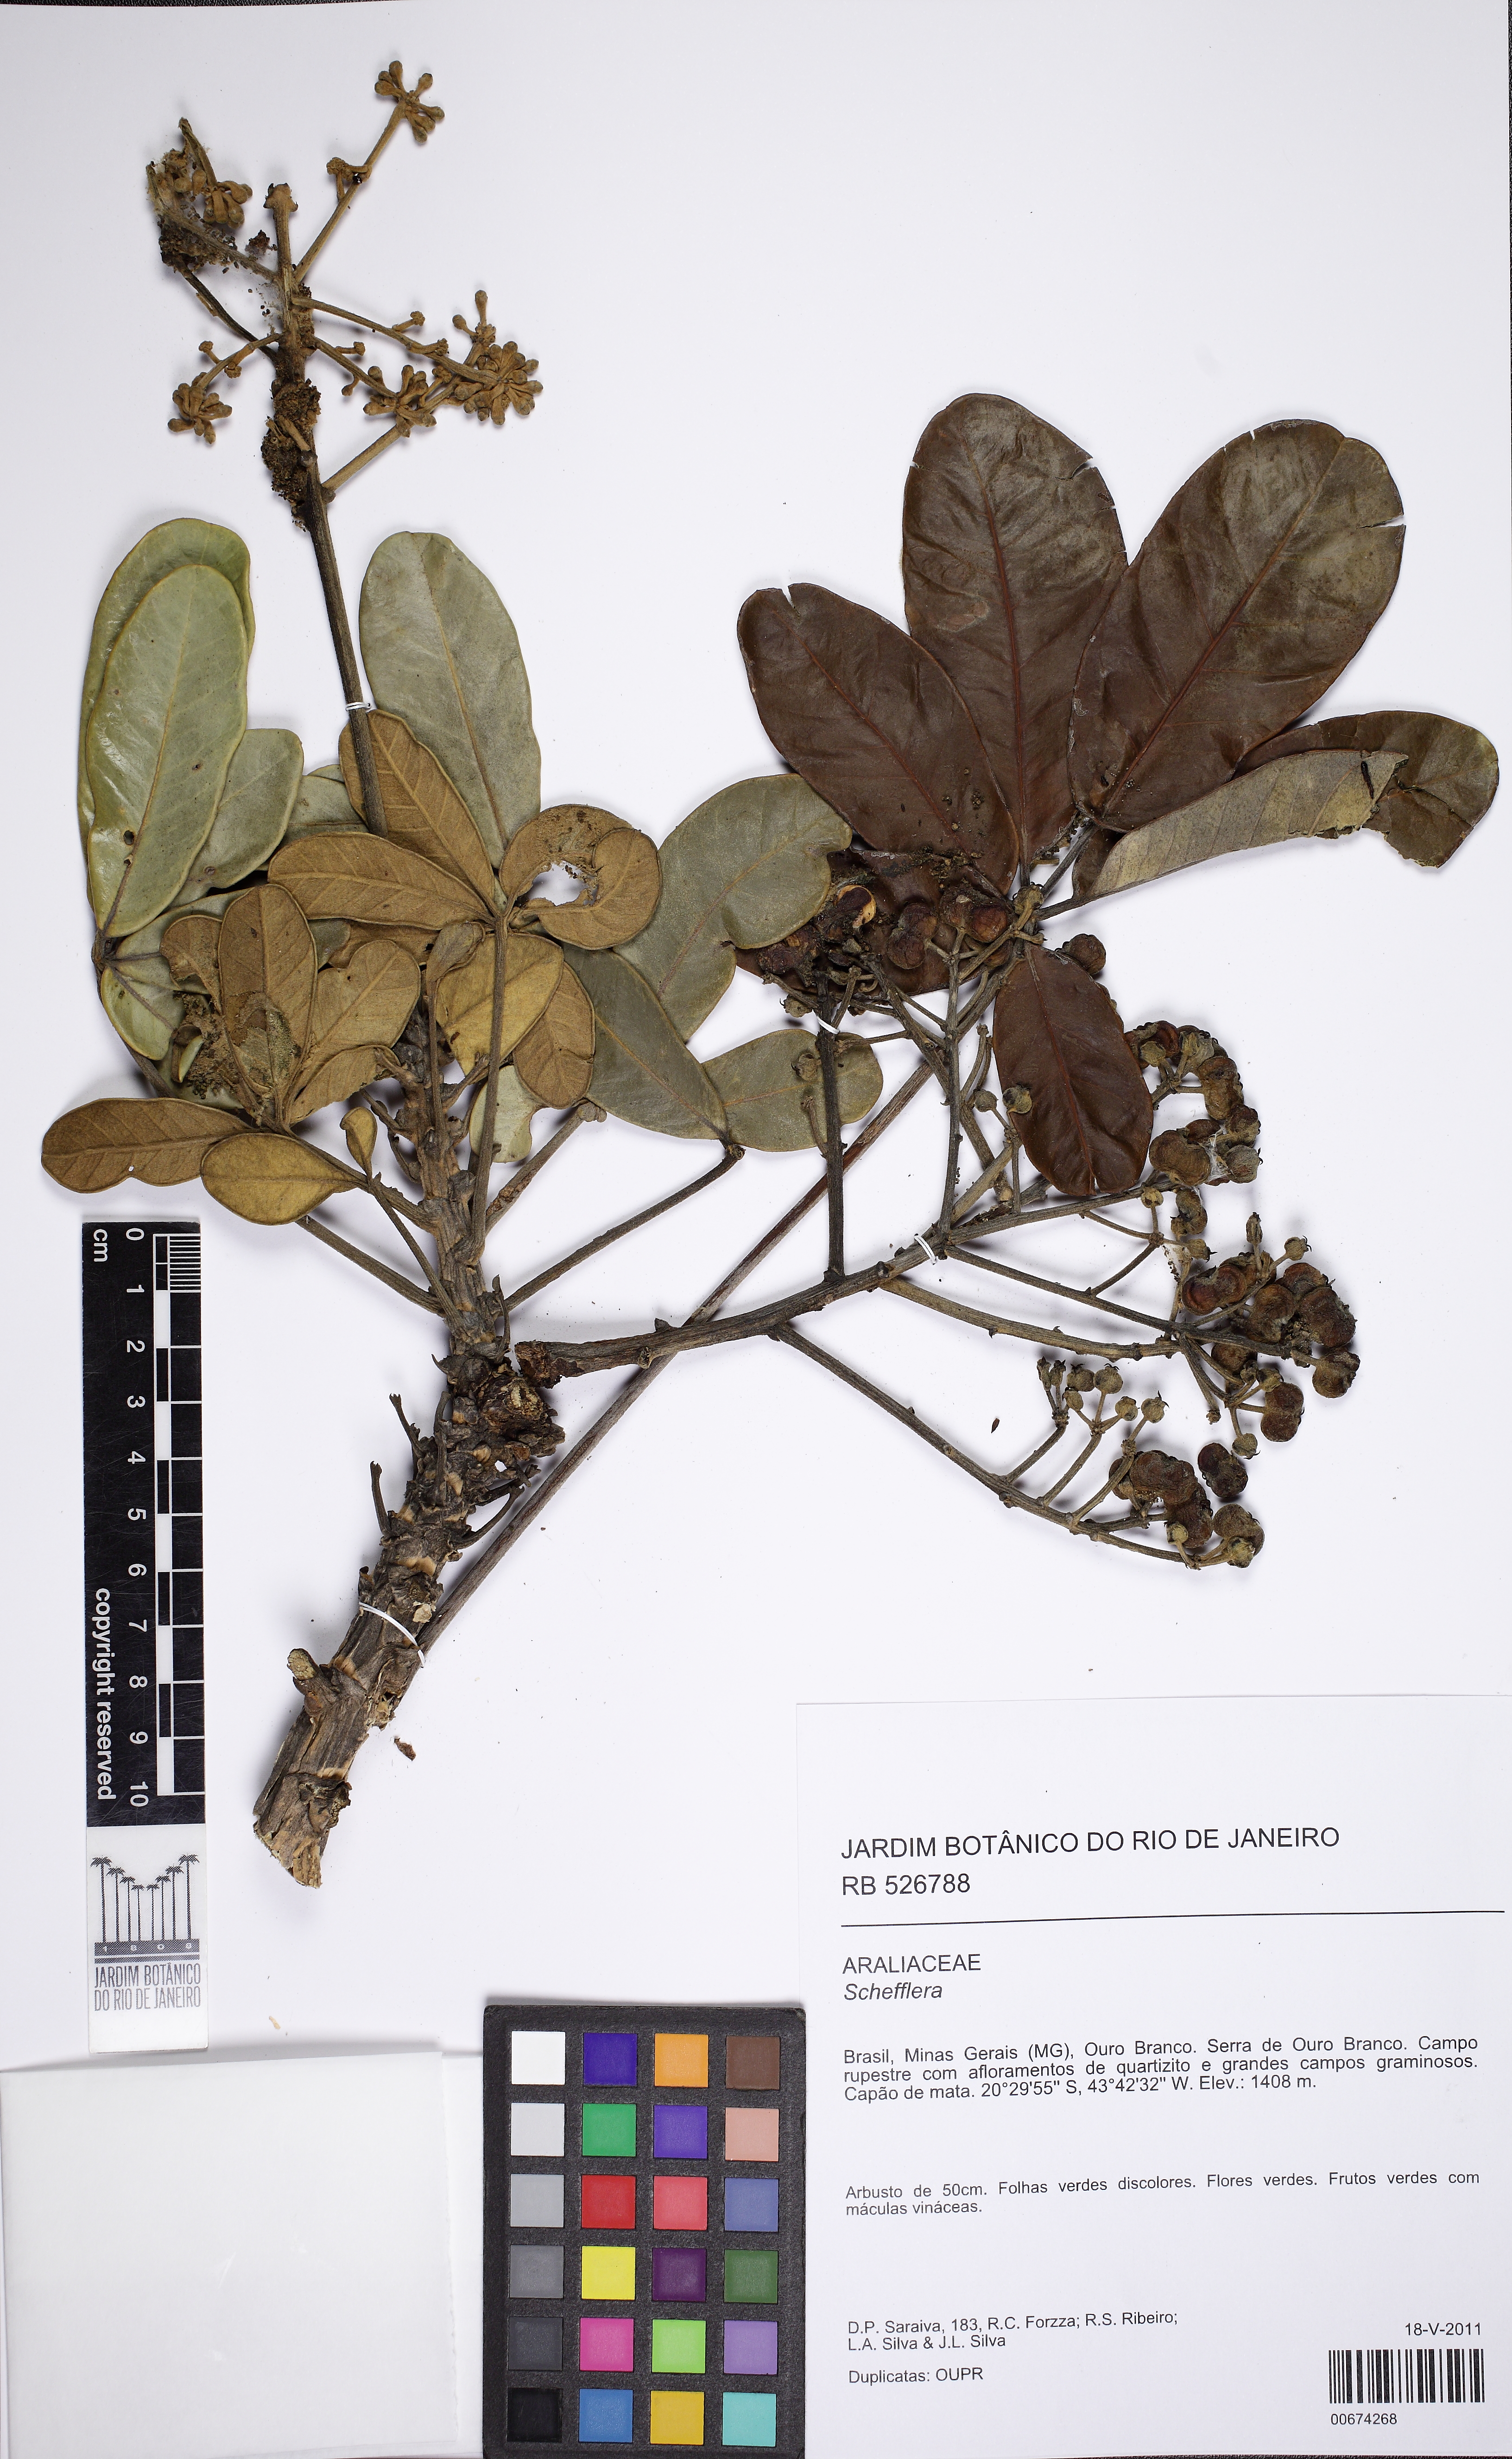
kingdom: Plantae
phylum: Tracheophyta
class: Magnoliopsida
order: Apiales
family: Araliaceae
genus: Didymopanax
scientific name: Didymopanax macrocarpus
